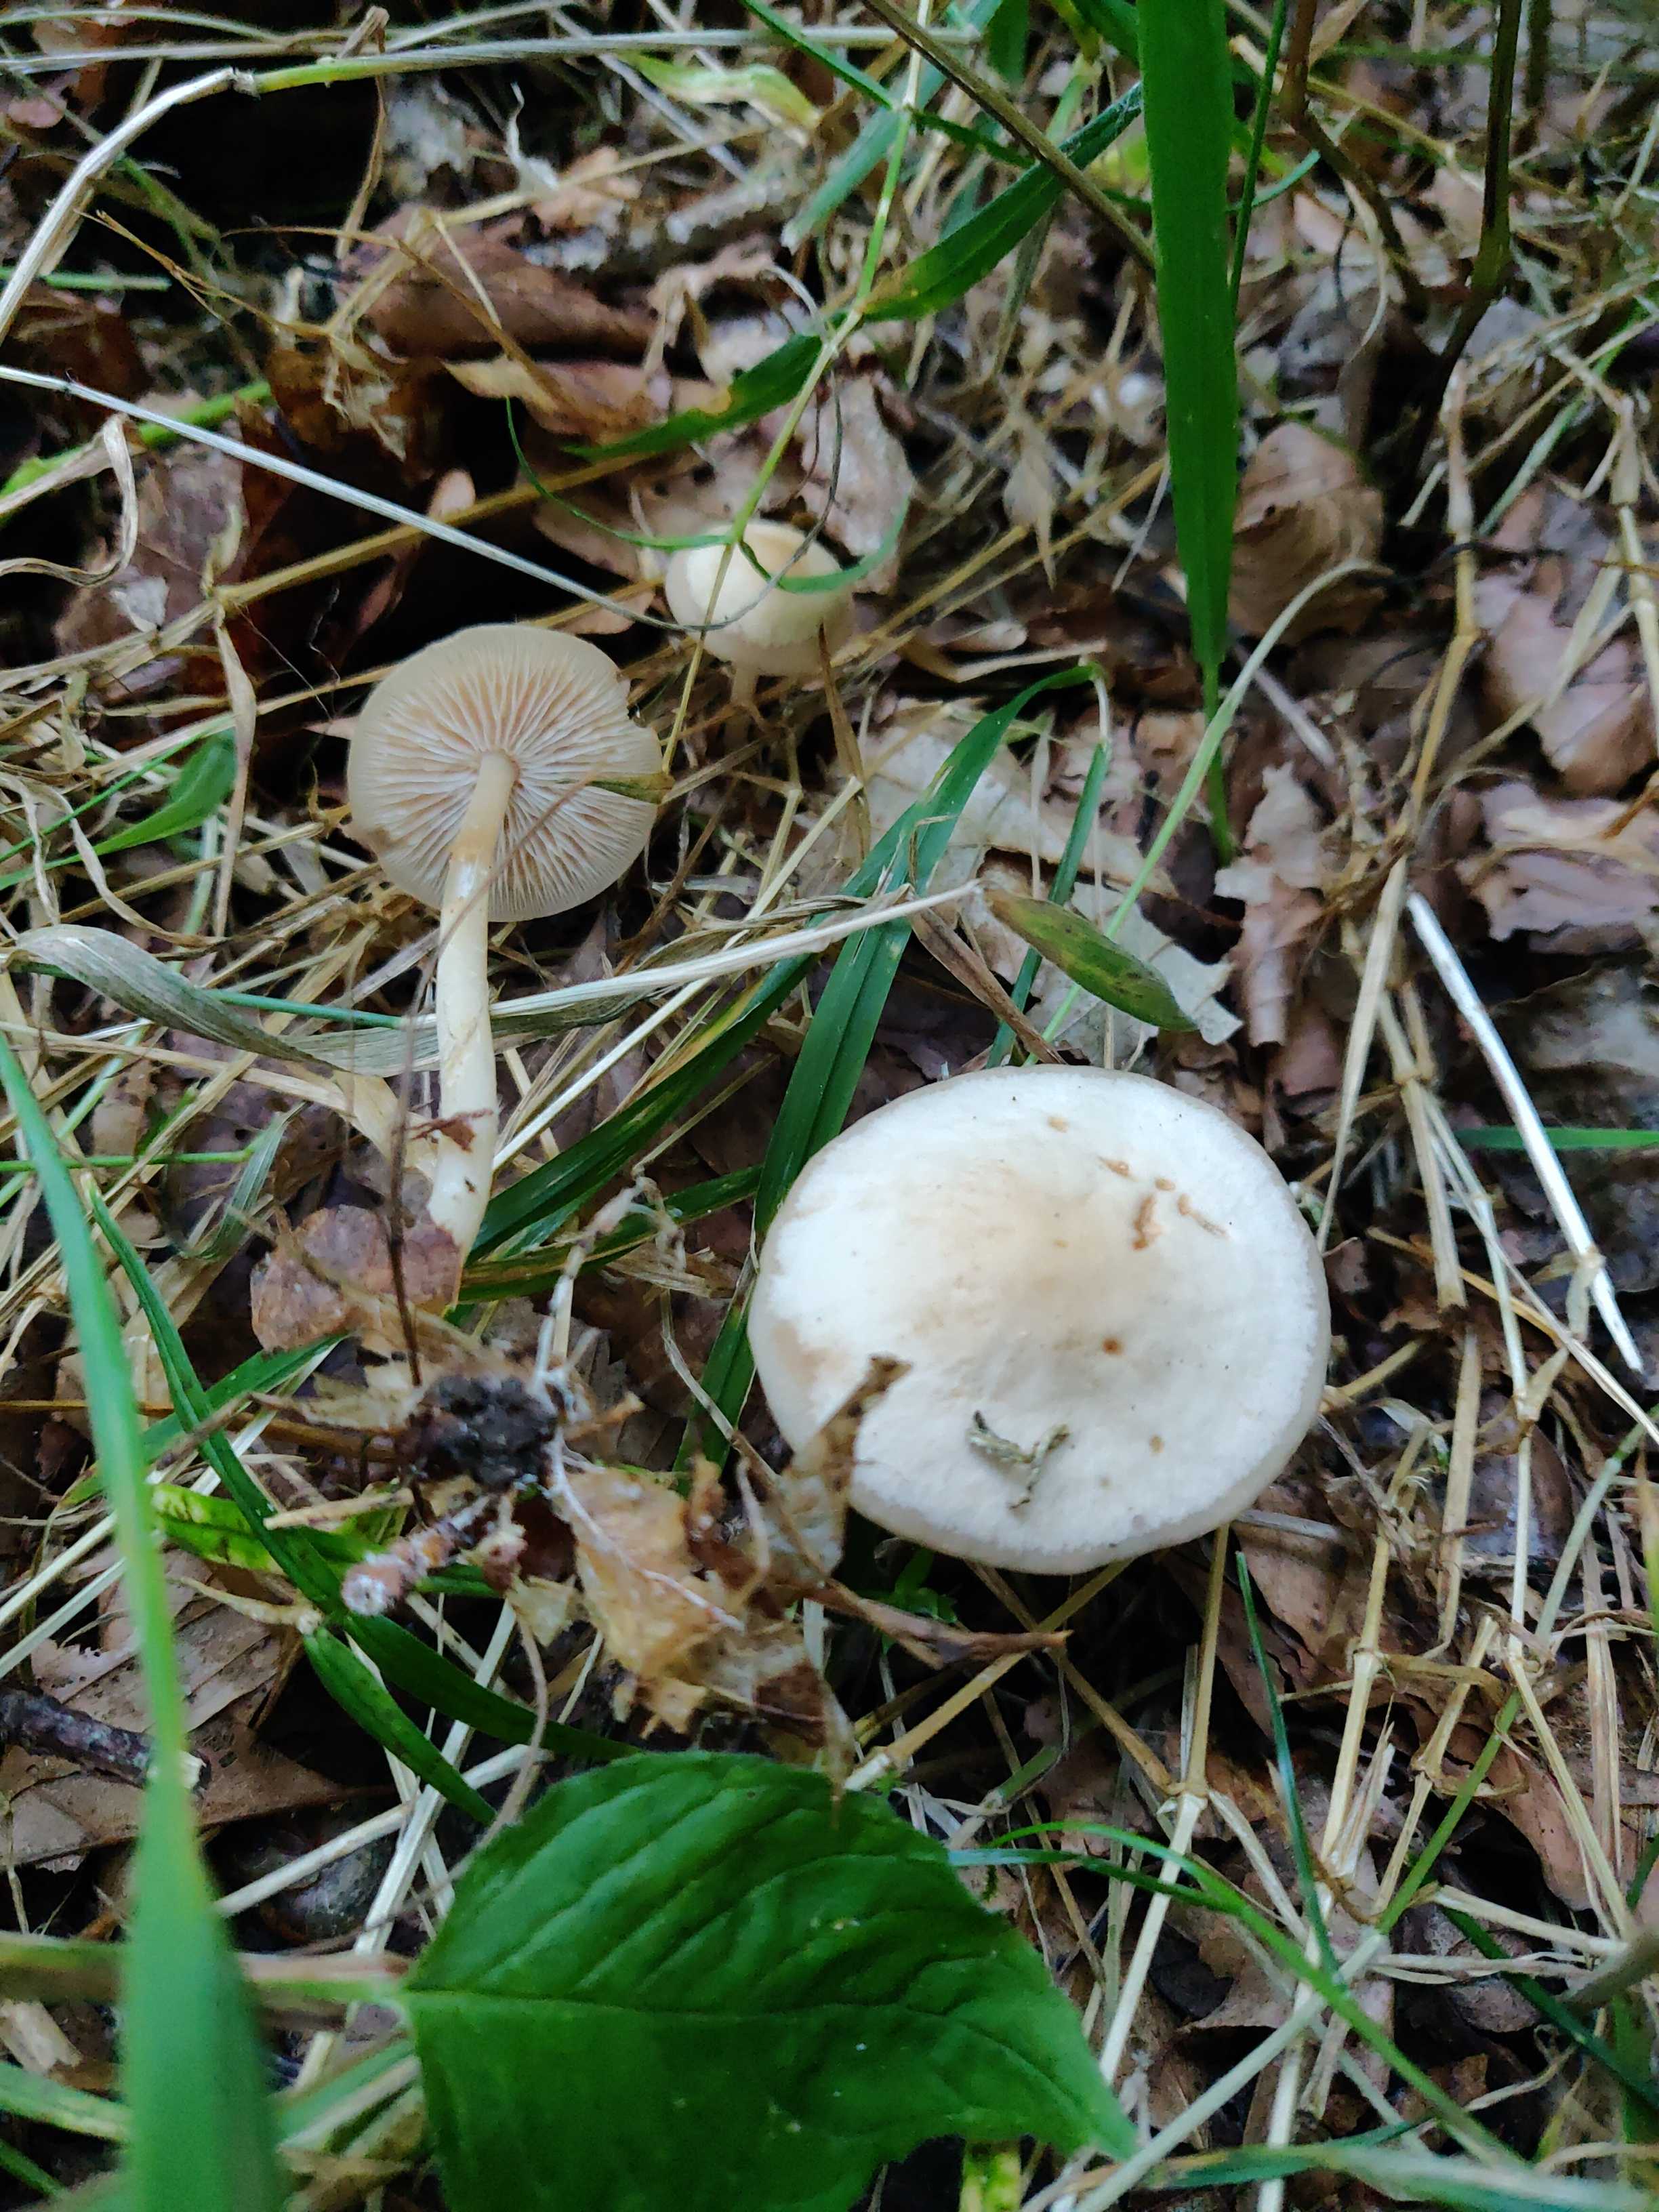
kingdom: Fungi
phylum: Basidiomycota
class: Agaricomycetes
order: Agaricales
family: Omphalotaceae
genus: Gymnopus
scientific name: Gymnopus
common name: fladhat
